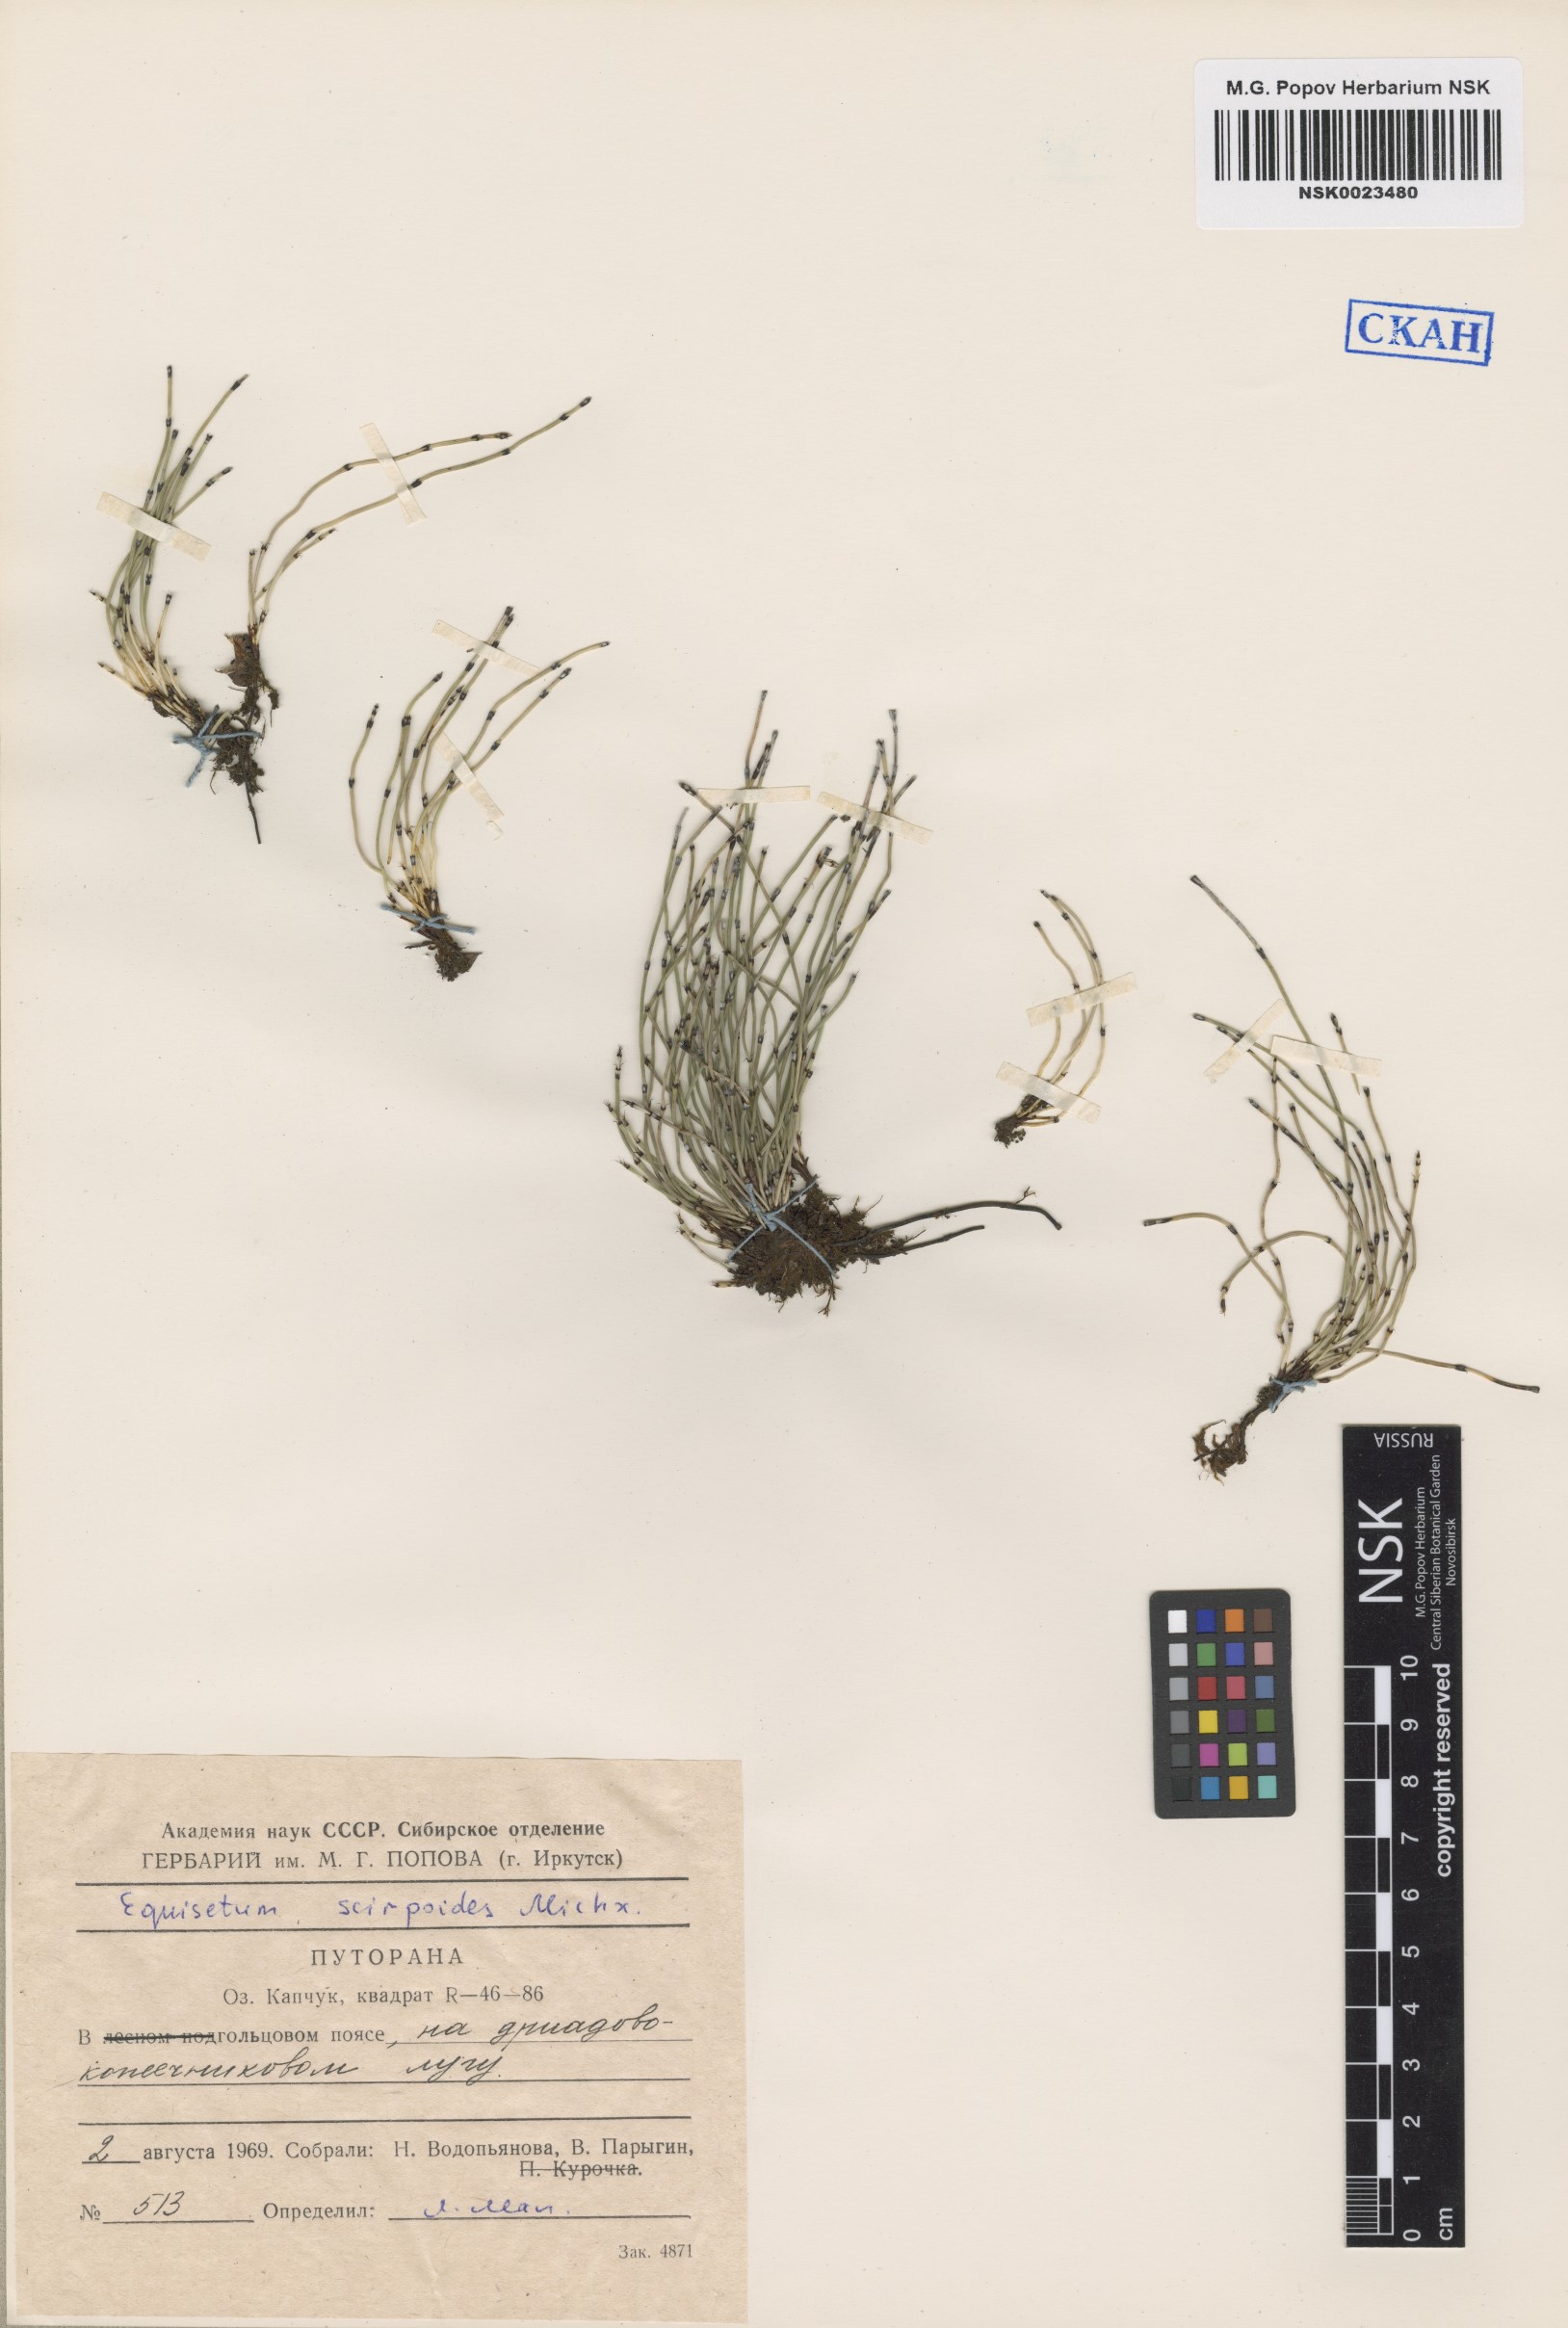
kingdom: Plantae
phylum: Tracheophyta
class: Polypodiopsida
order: Equisetales
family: Equisetaceae
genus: Equisetum
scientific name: Equisetum scirpoides
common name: Delicate horsetail
